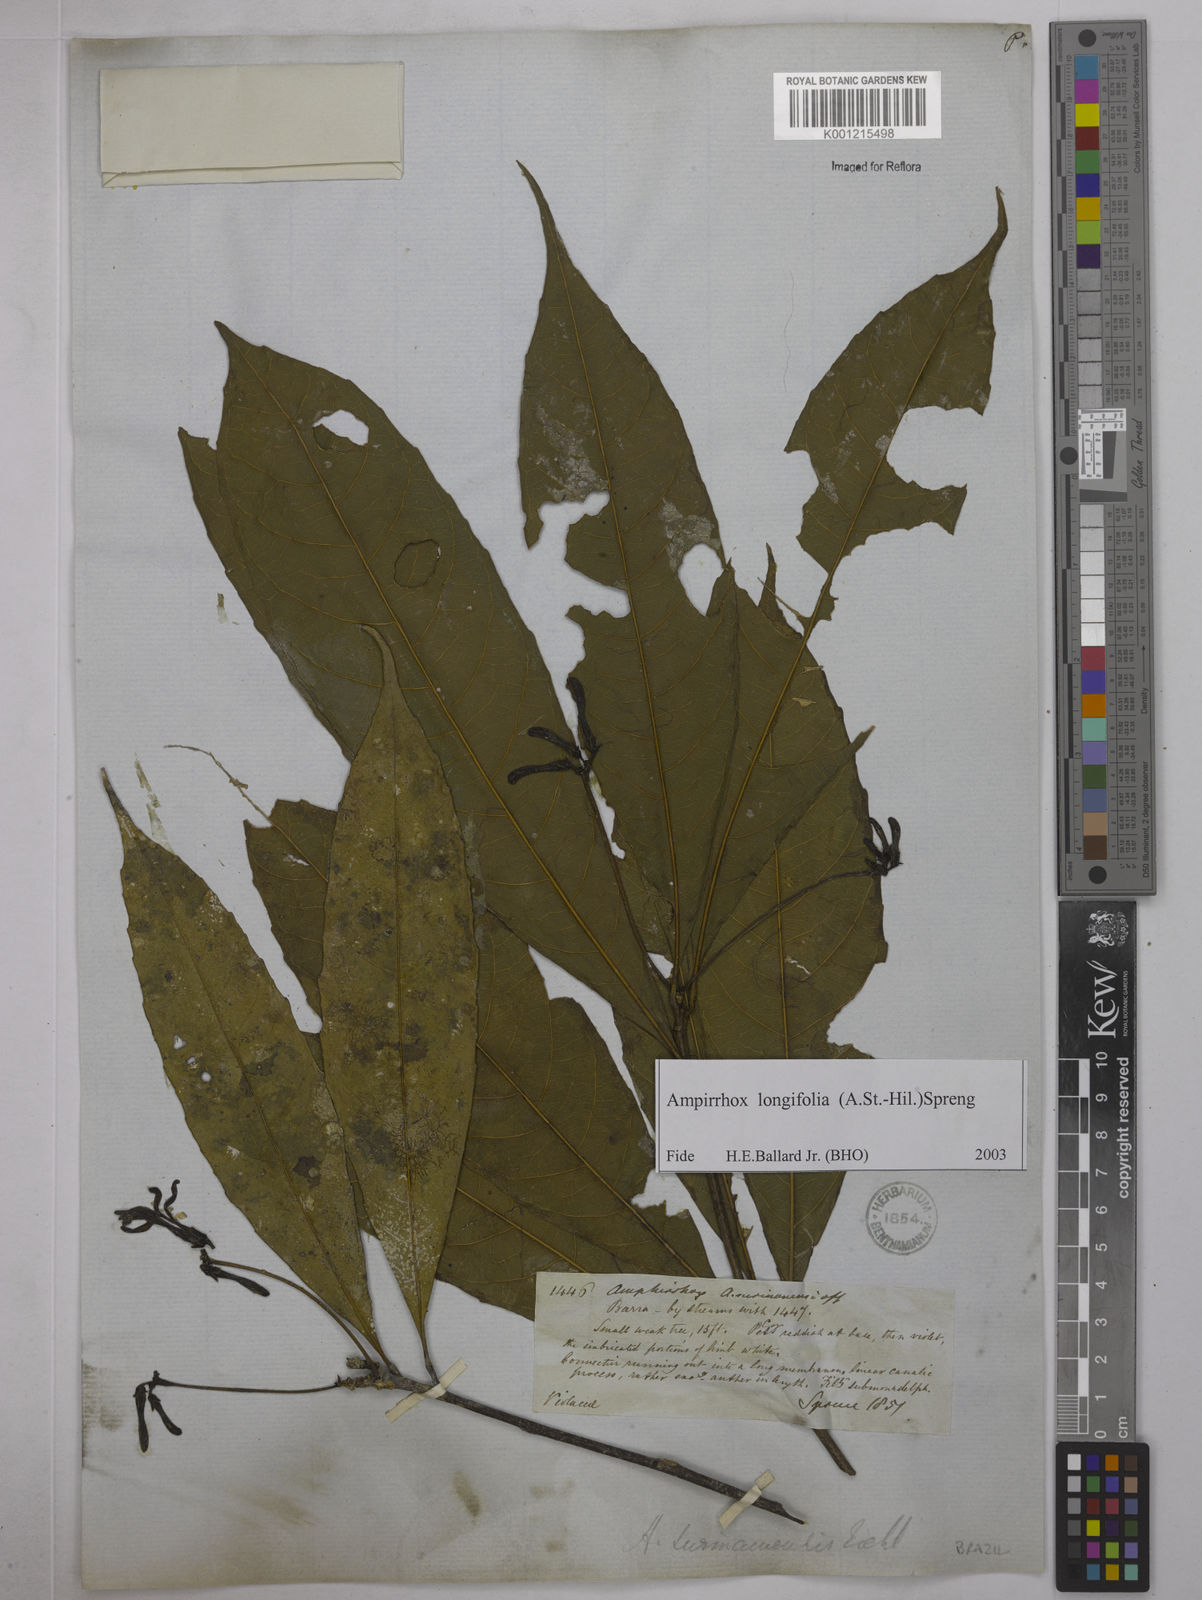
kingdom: Plantae
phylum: Tracheophyta
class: Magnoliopsida
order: Malpighiales
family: Violaceae
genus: Amphirrhox
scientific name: Amphirrhox longifolia
